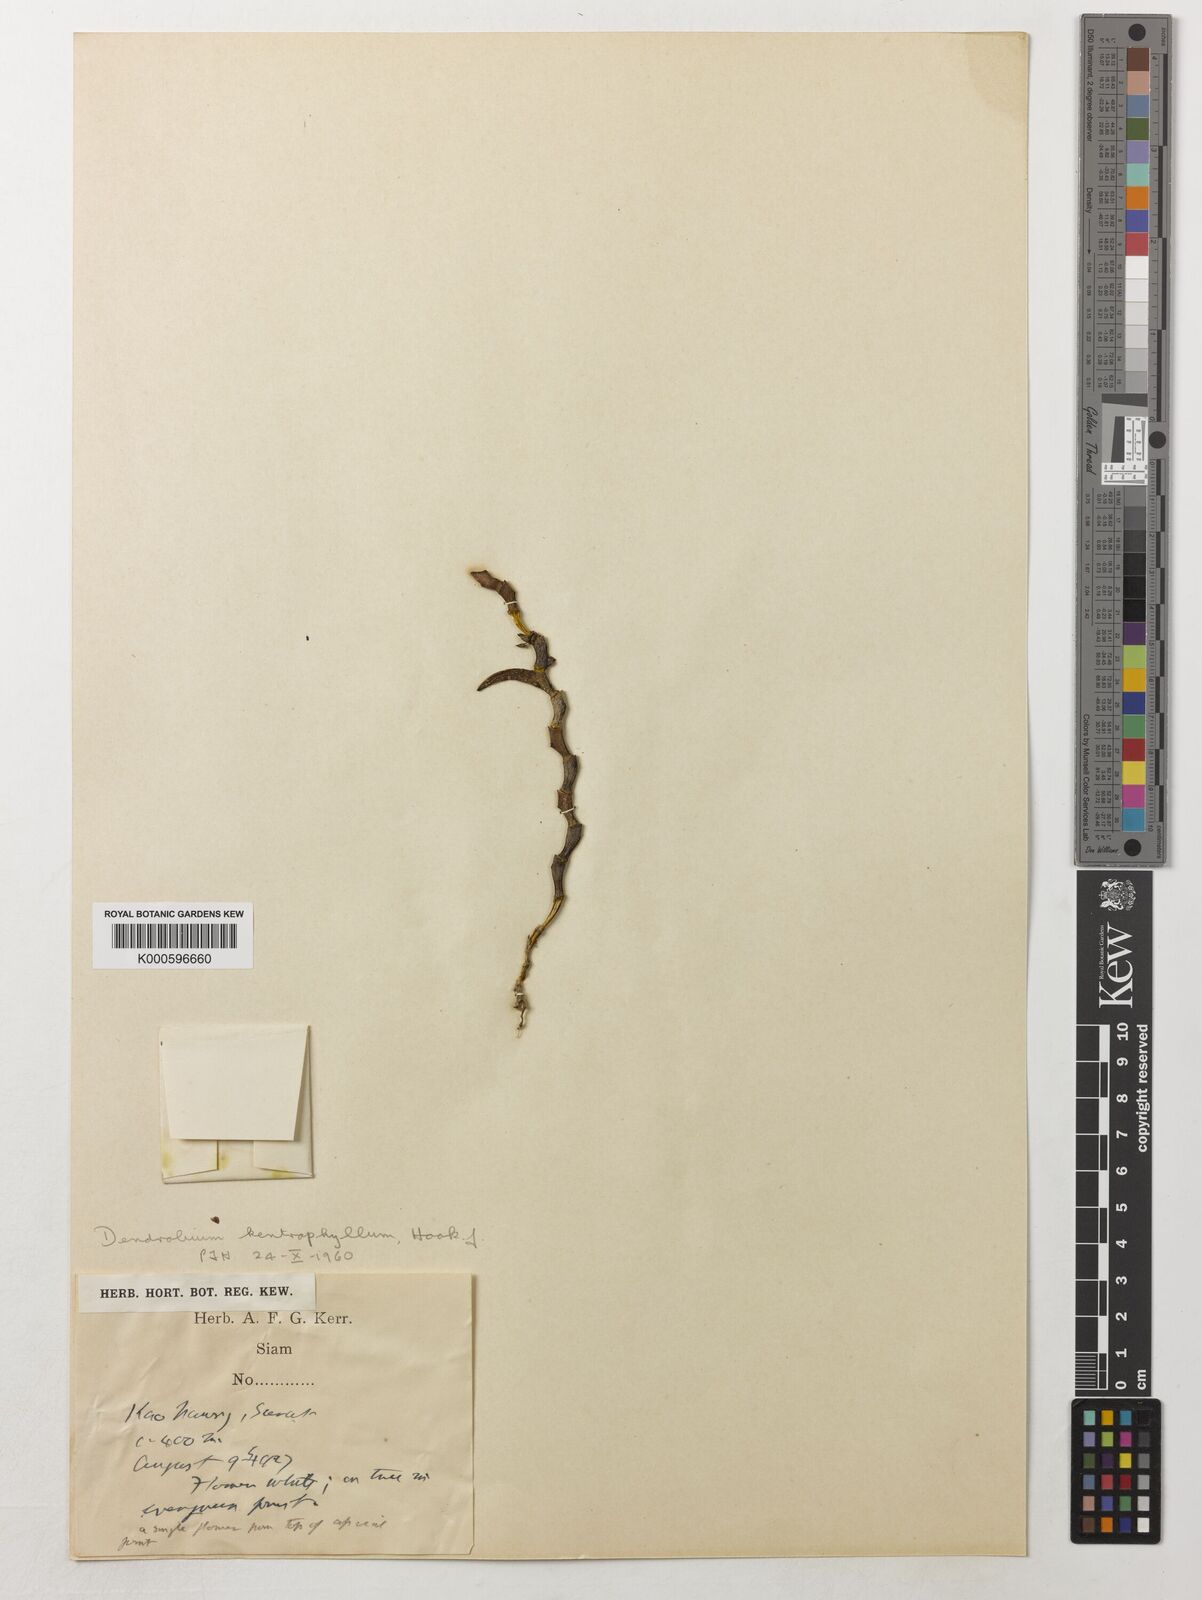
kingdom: Plantae
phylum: Tracheophyta
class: Liliopsida
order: Asparagales
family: Orchidaceae
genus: Dendrobium
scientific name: Dendrobium kentrophyllum
